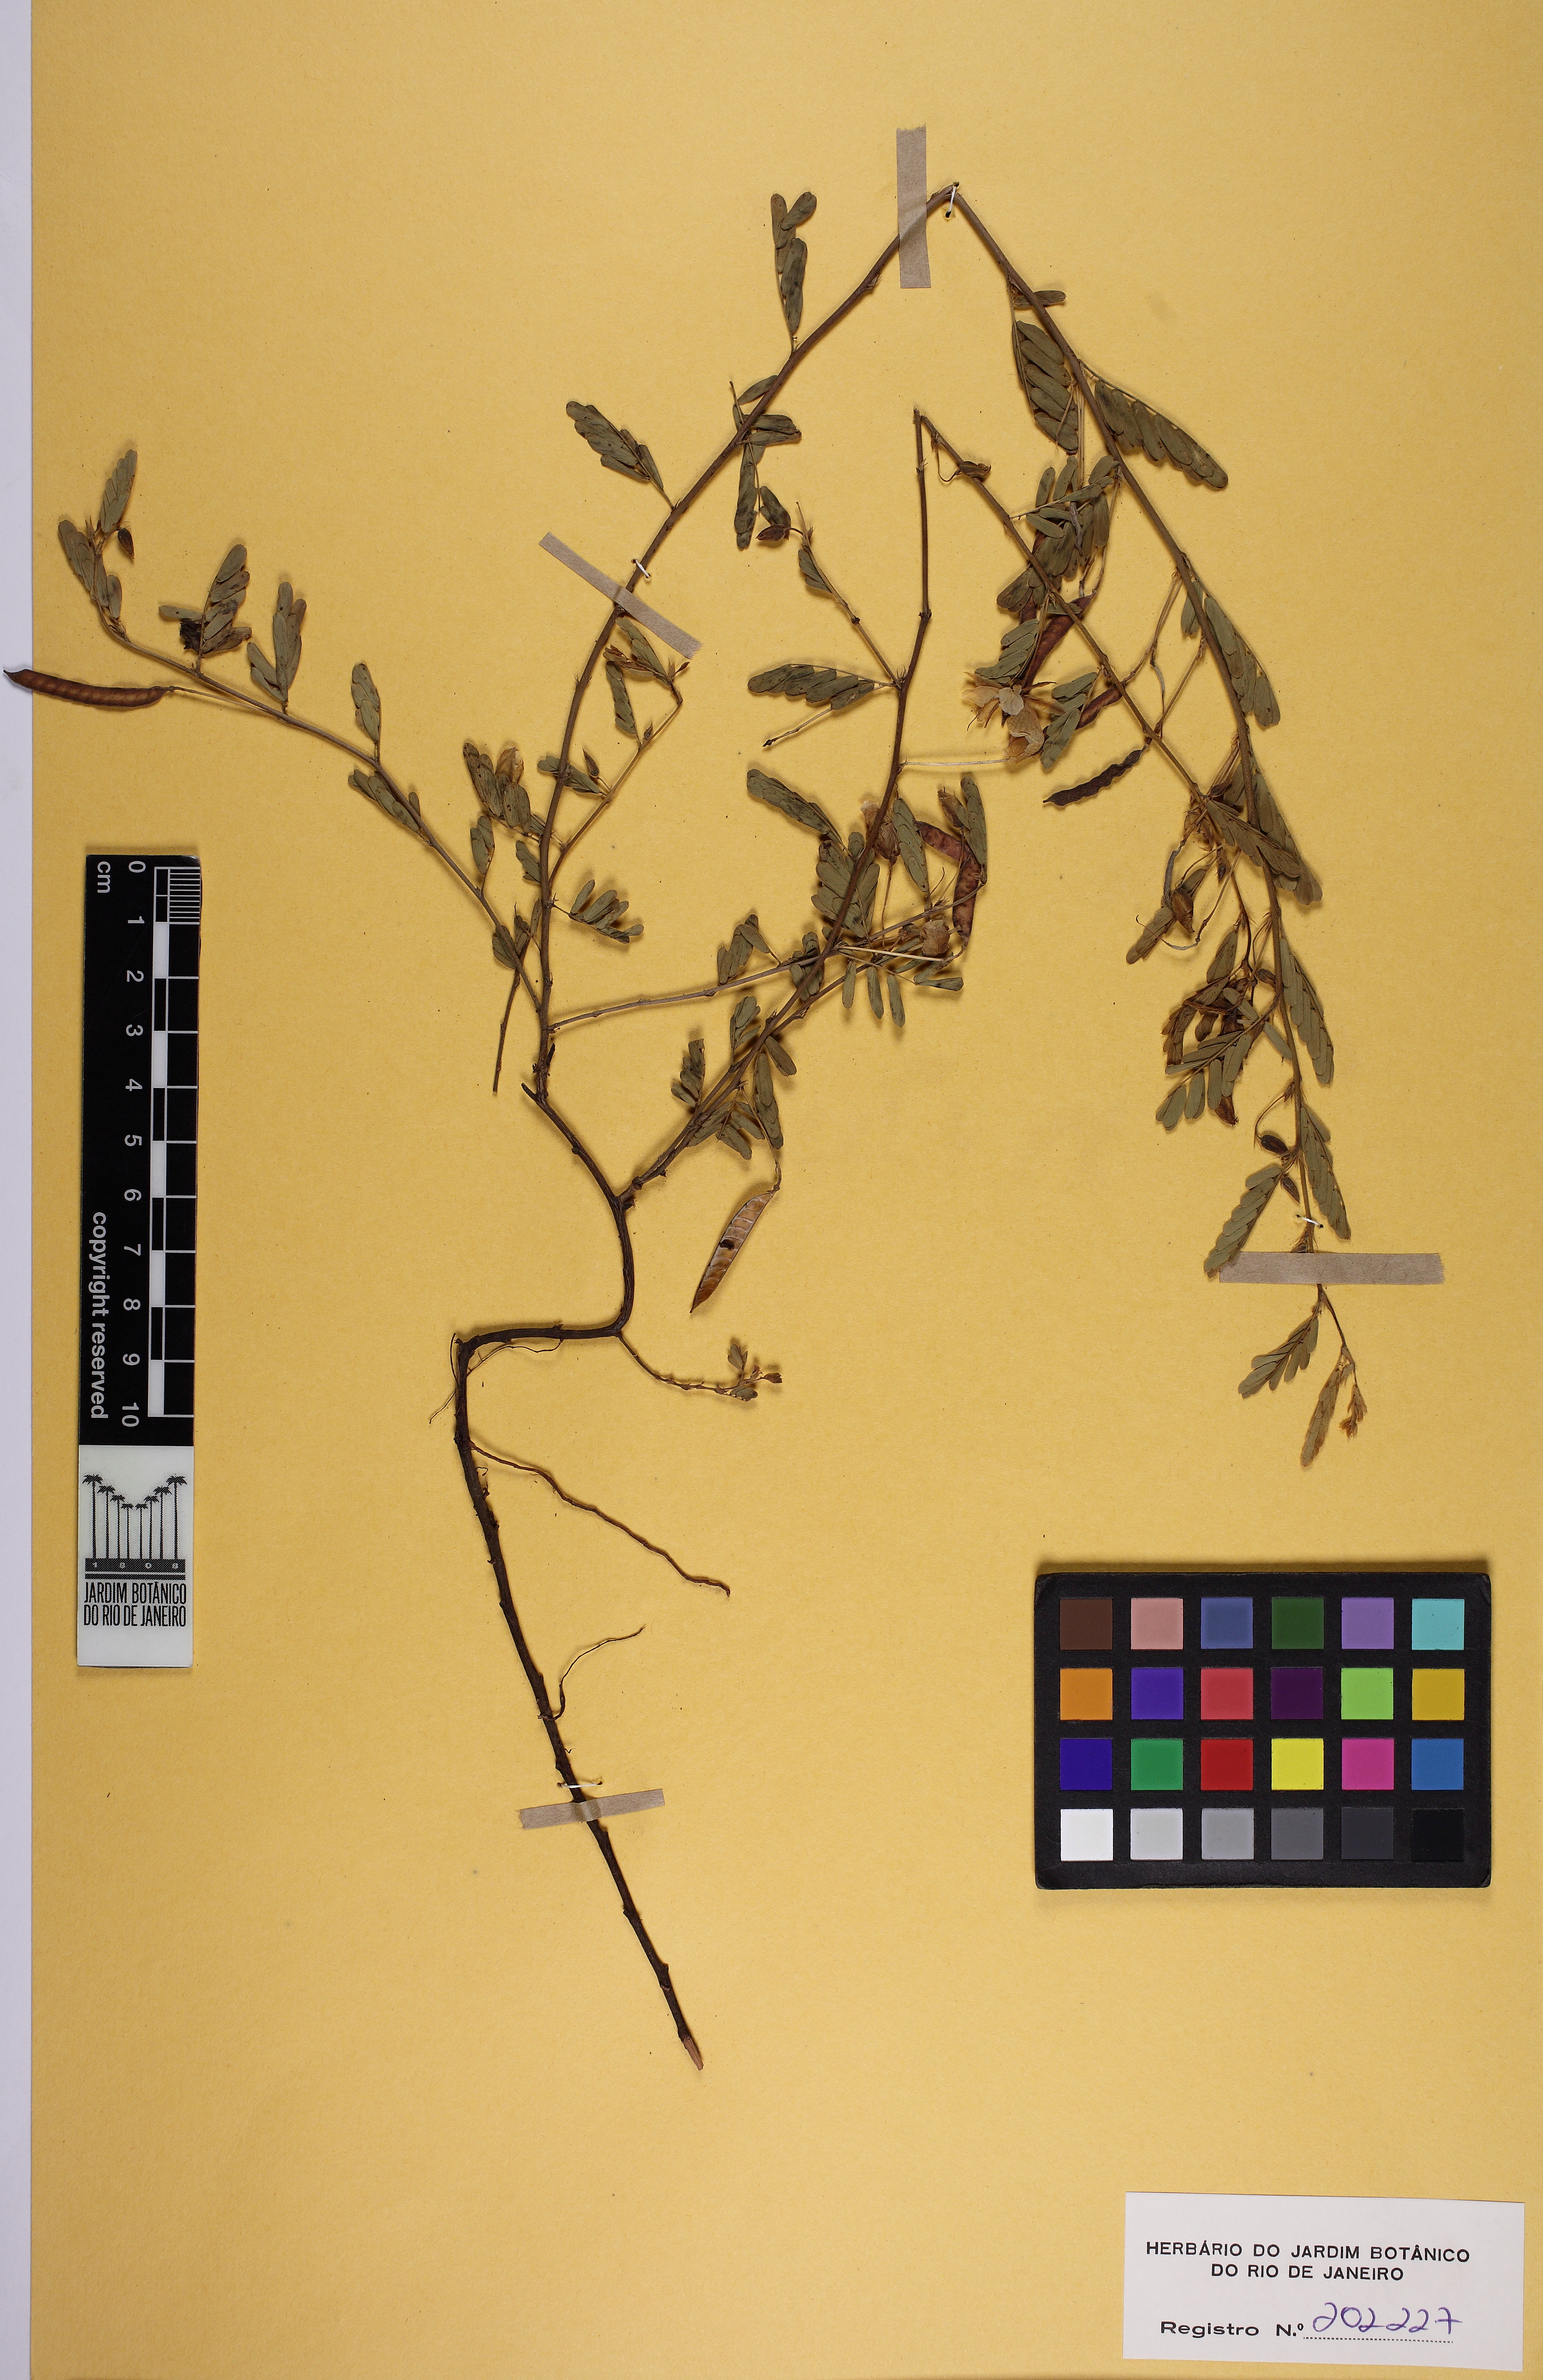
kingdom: Plantae
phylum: Tracheophyta
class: Magnoliopsida
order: Fabales
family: Fabaceae
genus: Chamaecrista
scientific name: Chamaecrista serpens
